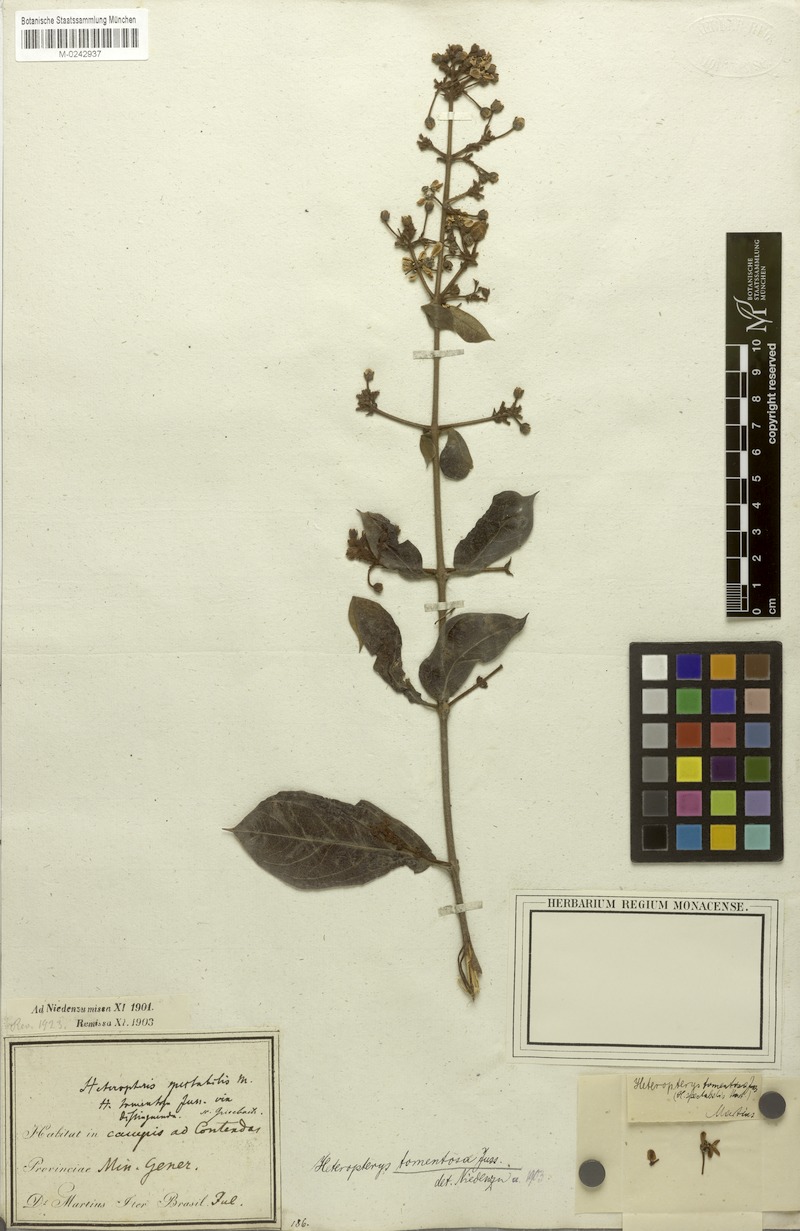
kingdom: Plantae
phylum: Tracheophyta
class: Magnoliopsida
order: Malpighiales
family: Malpighiaceae
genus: Heteropterys
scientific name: Heteropterys tomentosa
